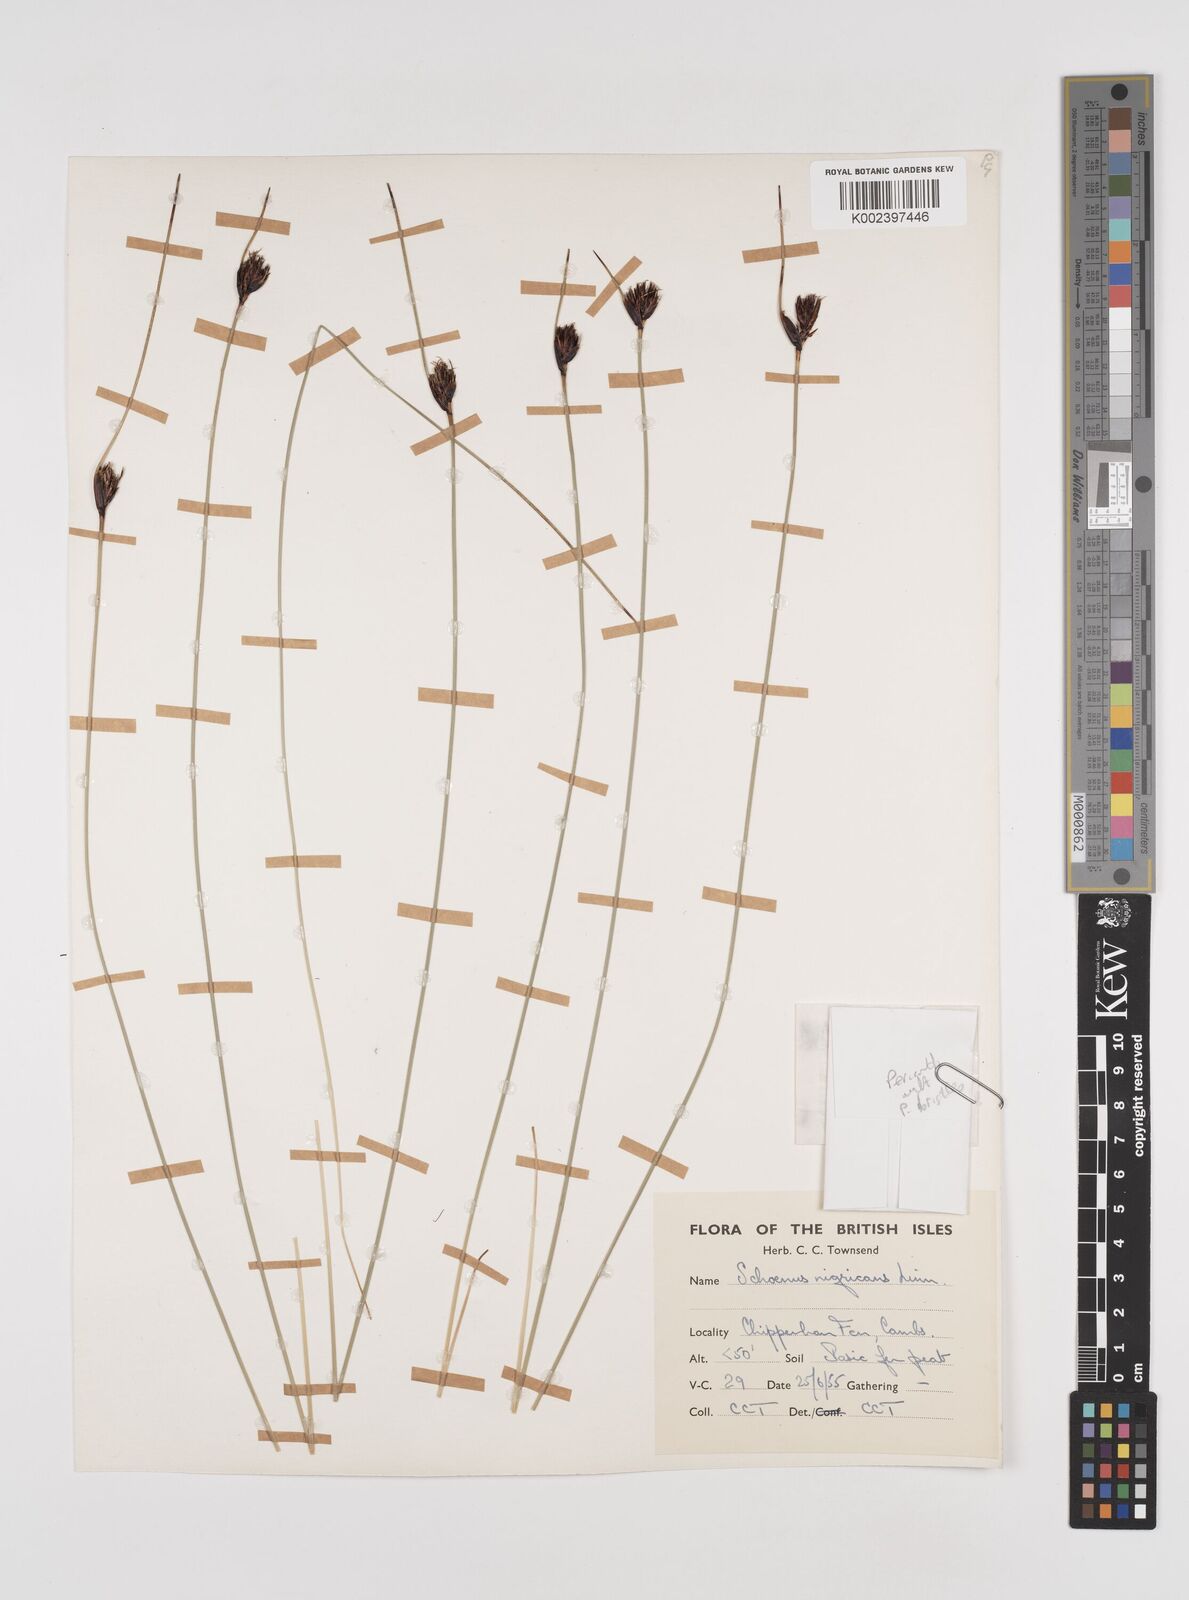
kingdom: Plantae
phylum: Tracheophyta
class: Liliopsida
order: Poales
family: Cyperaceae
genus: Schoenus
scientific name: Schoenus nigricans
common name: Black bog-rush
